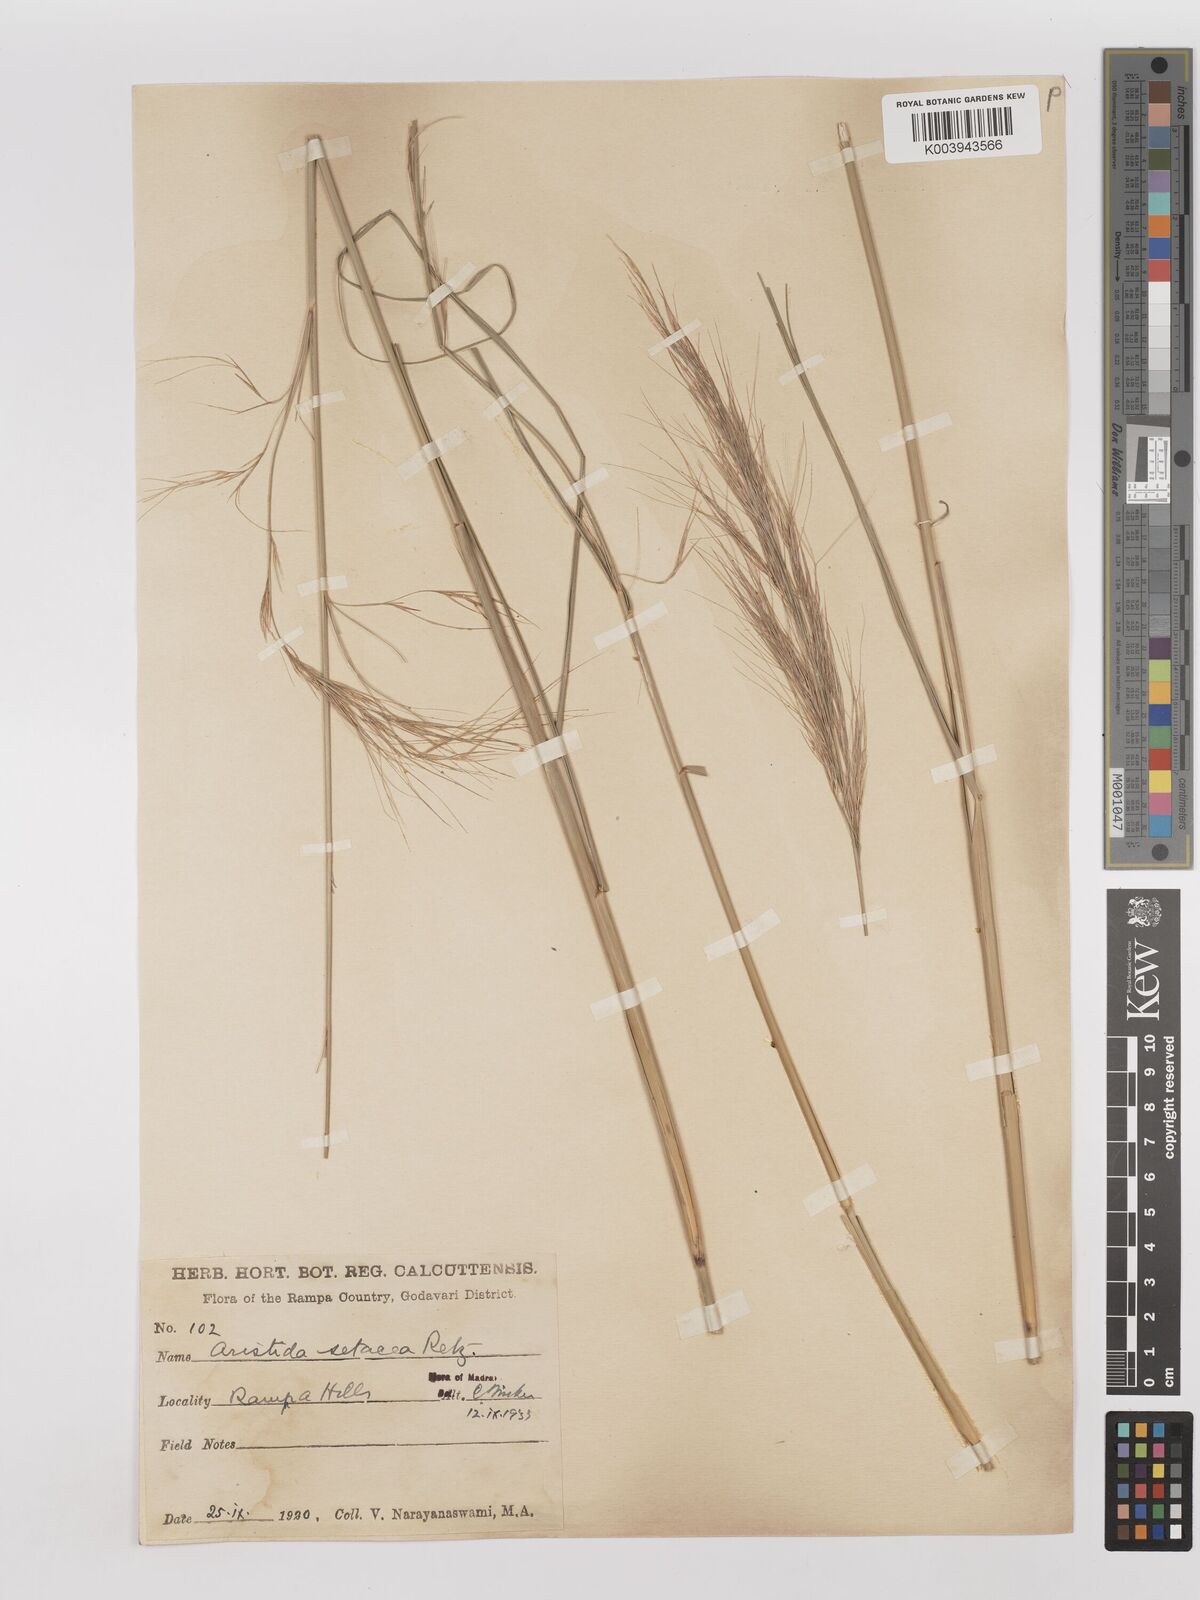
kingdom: Plantae
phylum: Tracheophyta
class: Liliopsida
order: Poales
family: Poaceae
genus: Aristida
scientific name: Aristida setacea
